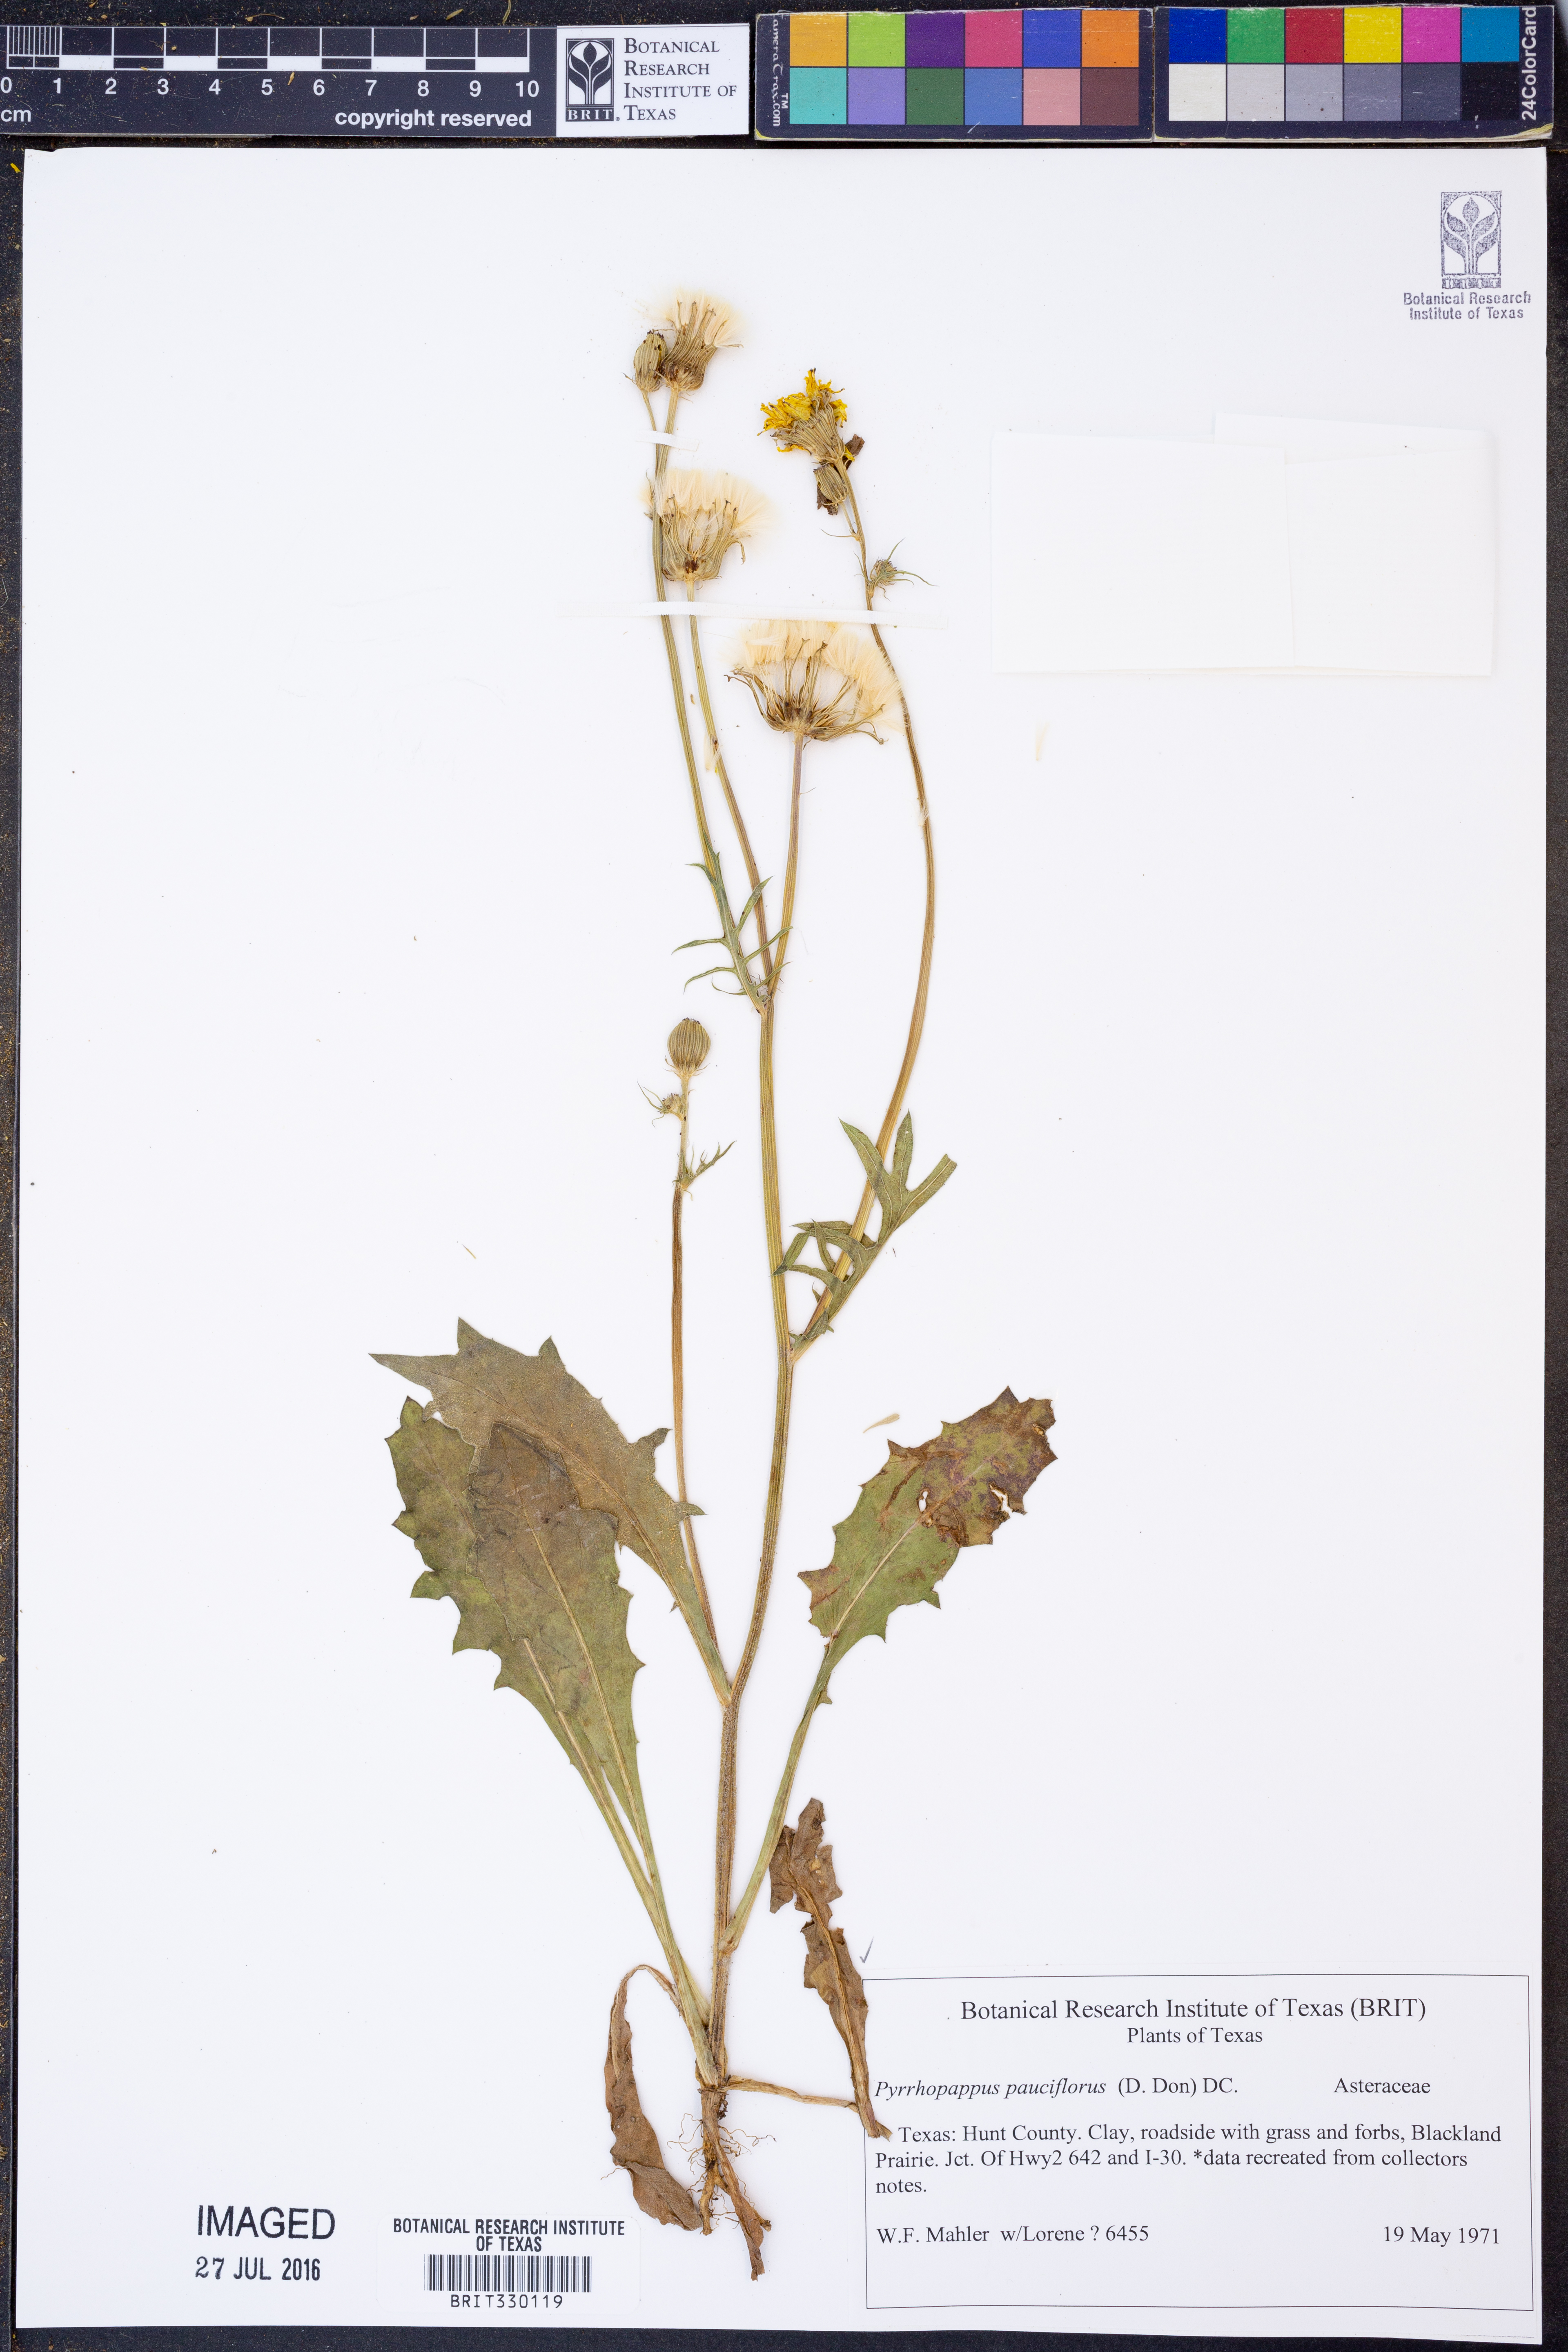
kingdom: Plantae
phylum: Tracheophyta
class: Magnoliopsida
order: Asterales
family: Asteraceae
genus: Pyrrhopappus
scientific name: Pyrrhopappus pauciflorus
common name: Texas false dandelion
